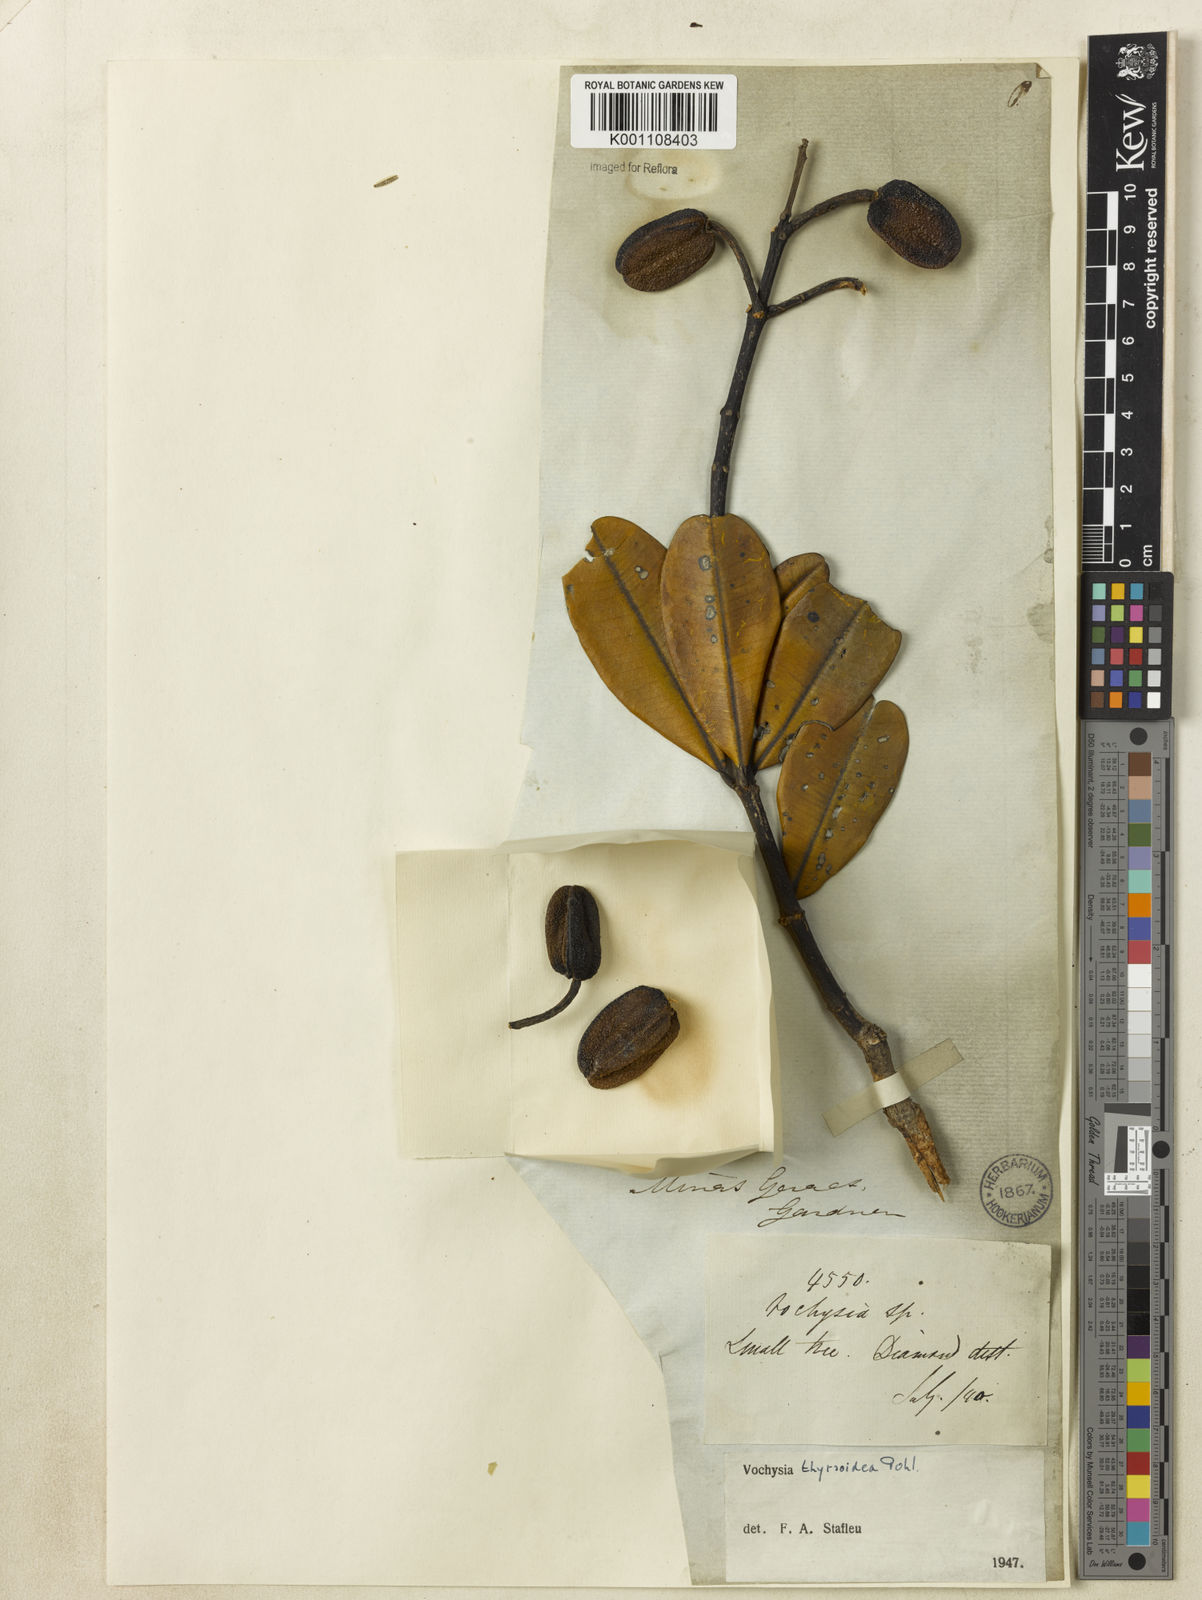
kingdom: Plantae
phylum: Tracheophyta
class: Magnoliopsida
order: Myrtales
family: Vochysiaceae
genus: Vochysia
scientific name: Vochysia thyrsoidea
